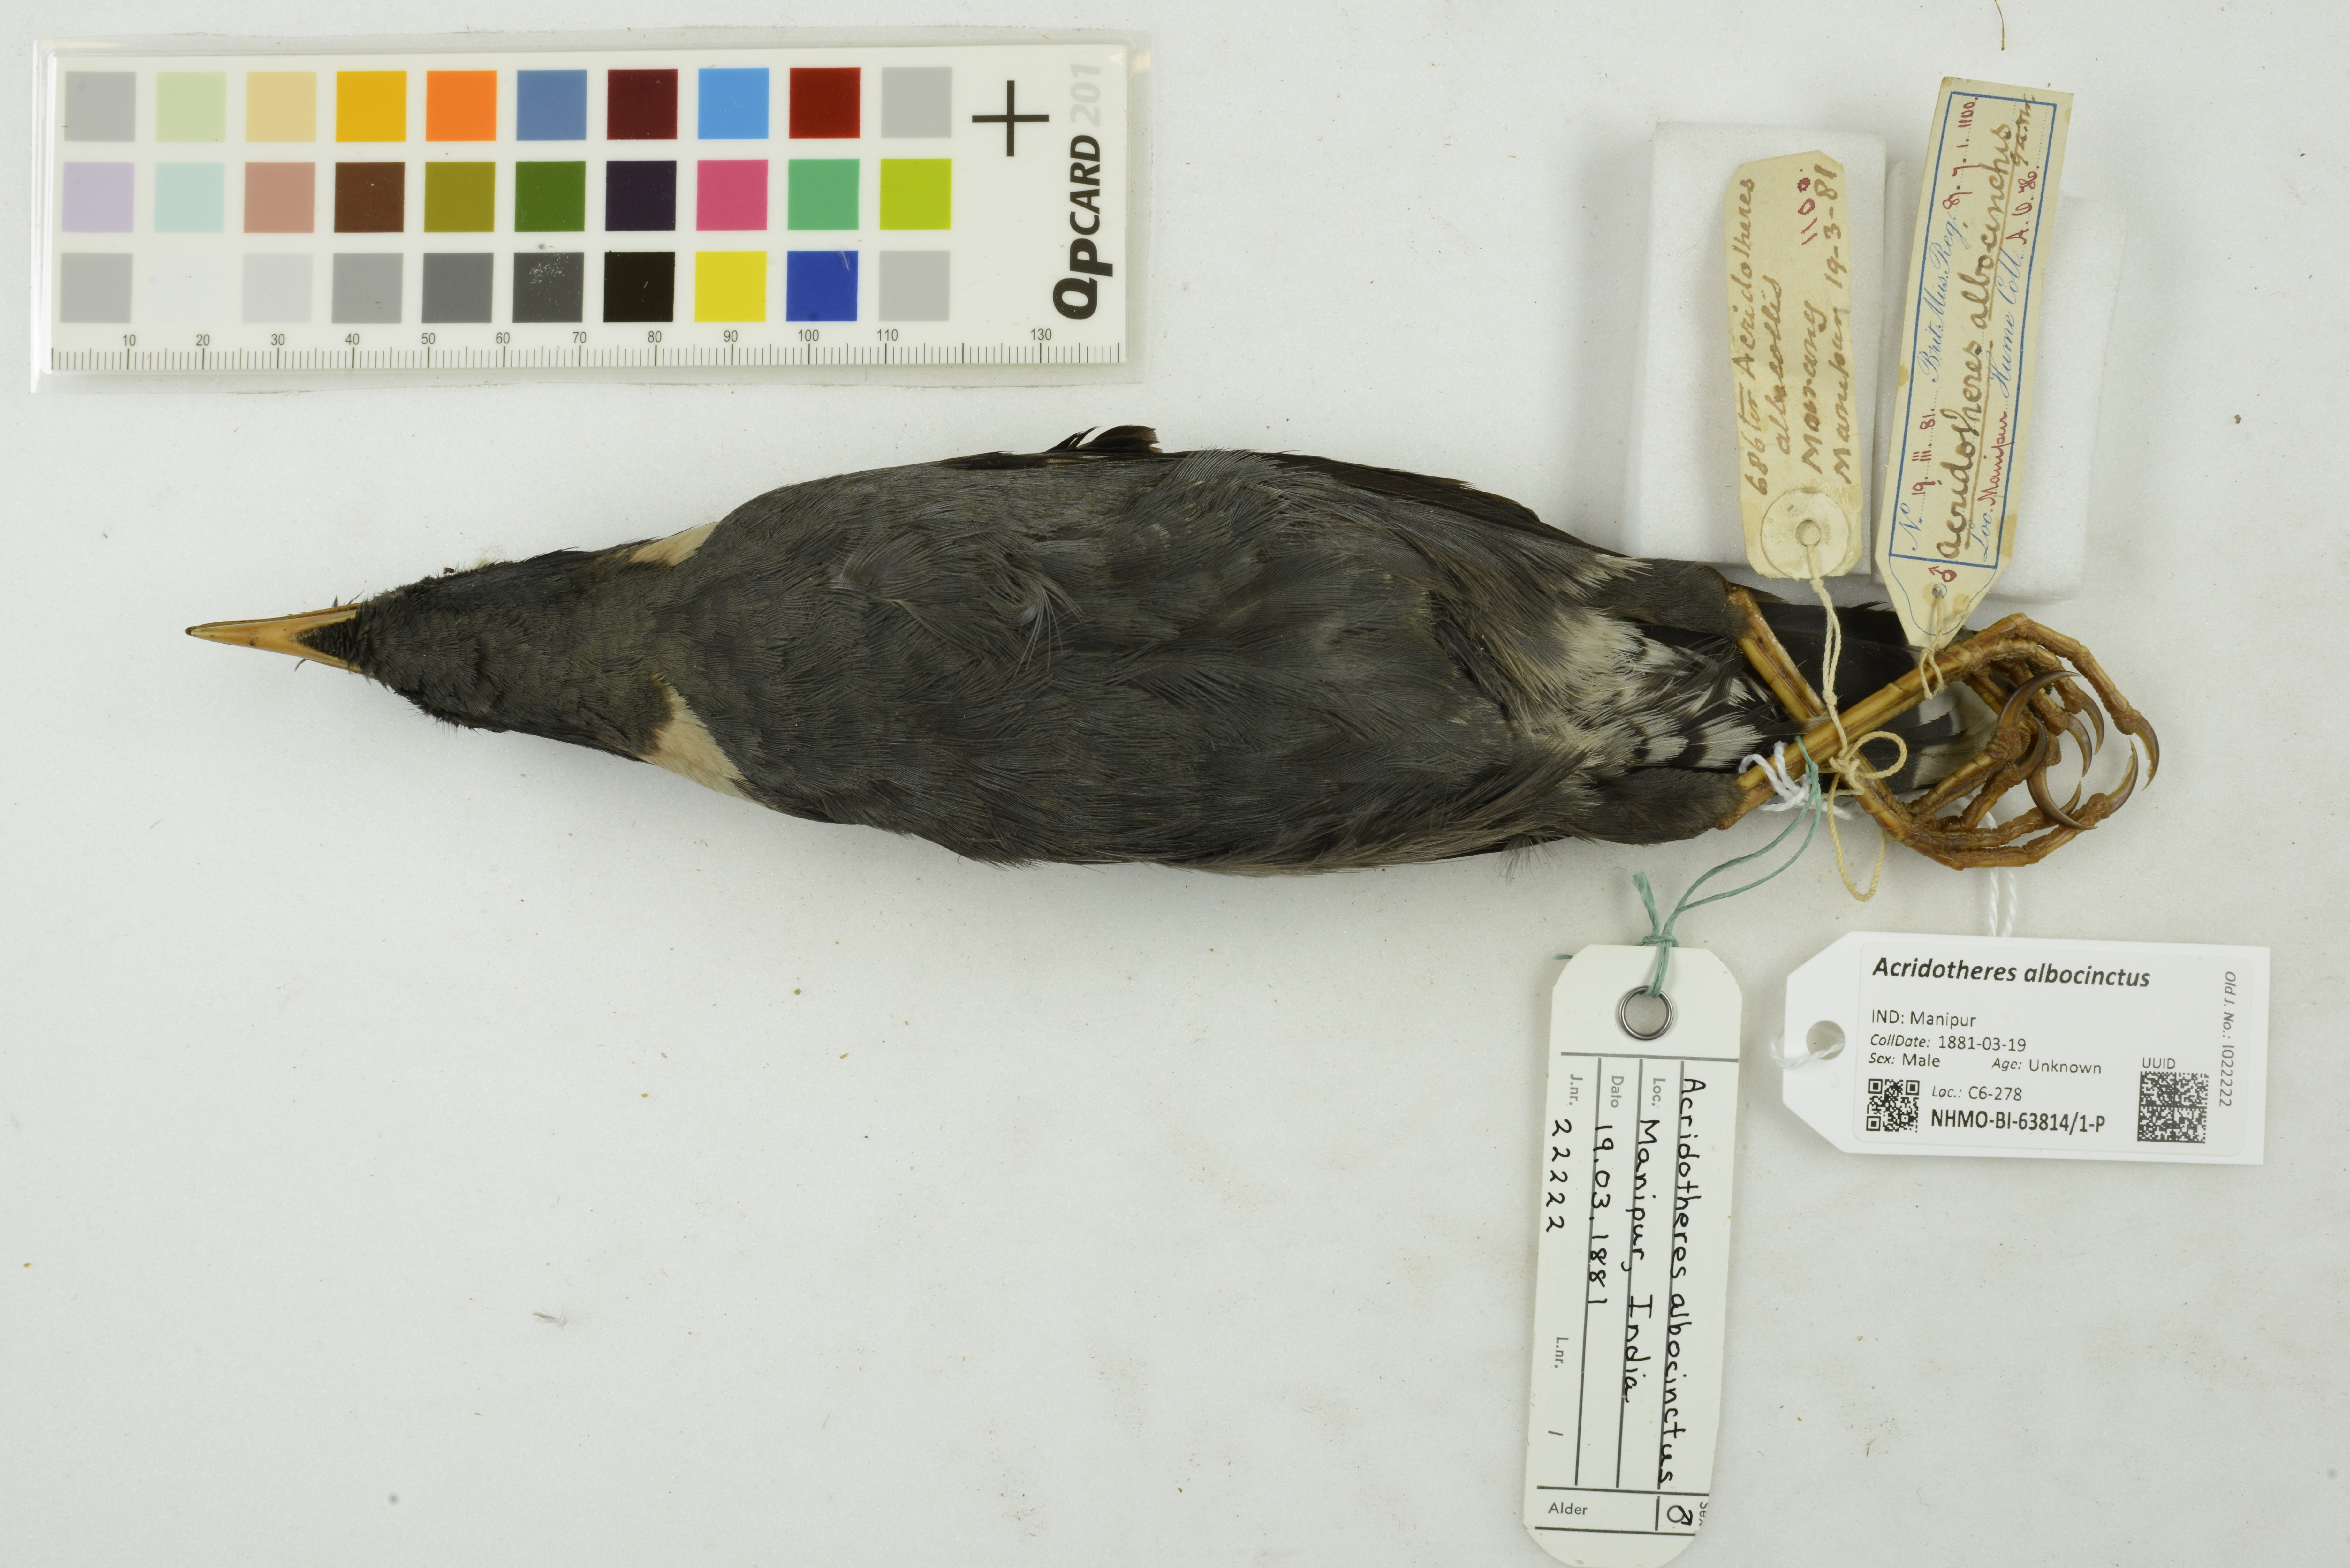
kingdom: Animalia
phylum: Chordata
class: Aves
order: Passeriformes
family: Sturnidae
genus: Acridotheres
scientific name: Acridotheres albocinctus
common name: Collared myna
